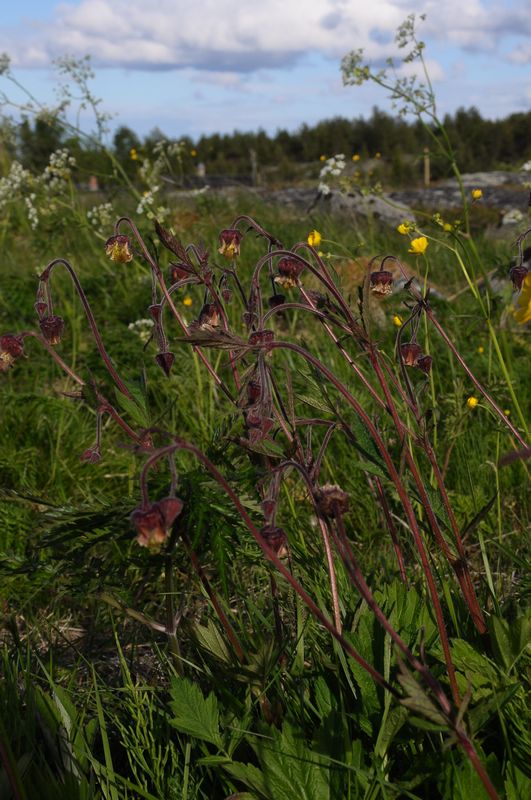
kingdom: Plantae
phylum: Tracheophyta
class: Magnoliopsida
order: Rosales
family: Rosaceae
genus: Geum
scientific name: Geum rivale
